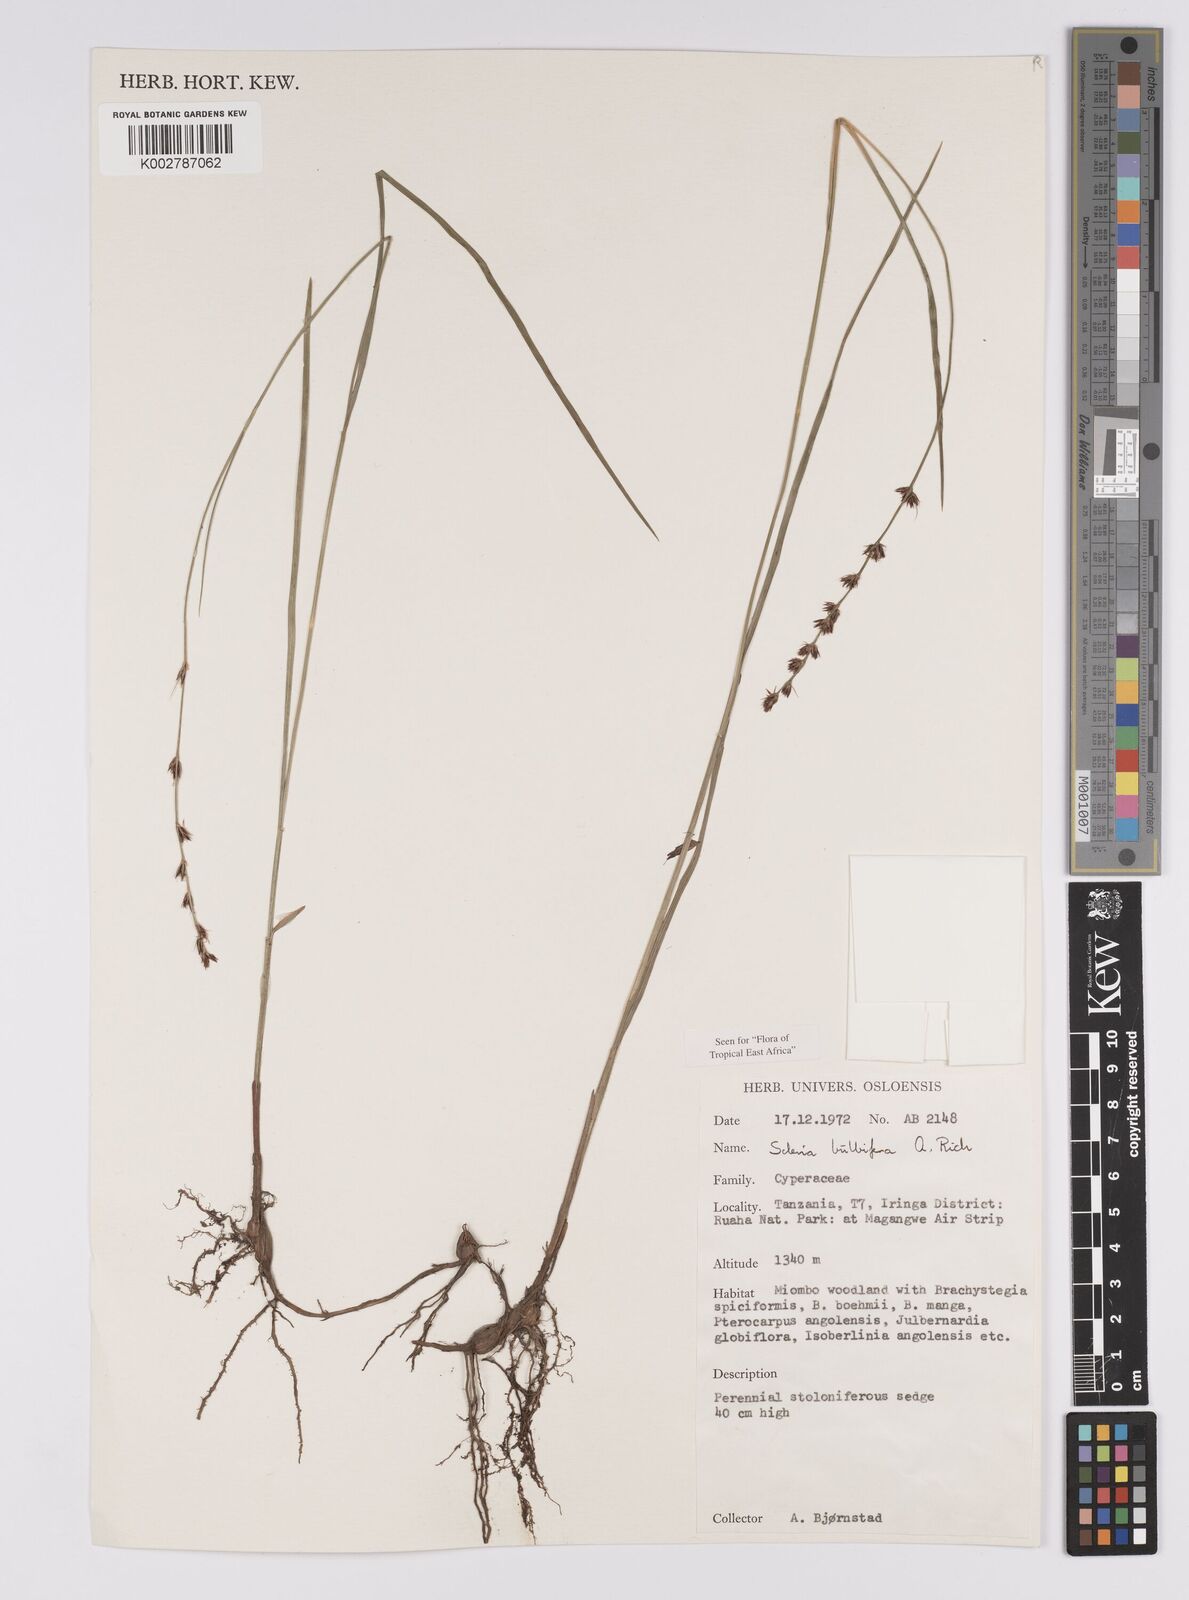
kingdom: Plantae
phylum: Tracheophyta
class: Liliopsida
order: Poales
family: Cyperaceae
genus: Scleria
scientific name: Scleria bulbifera
